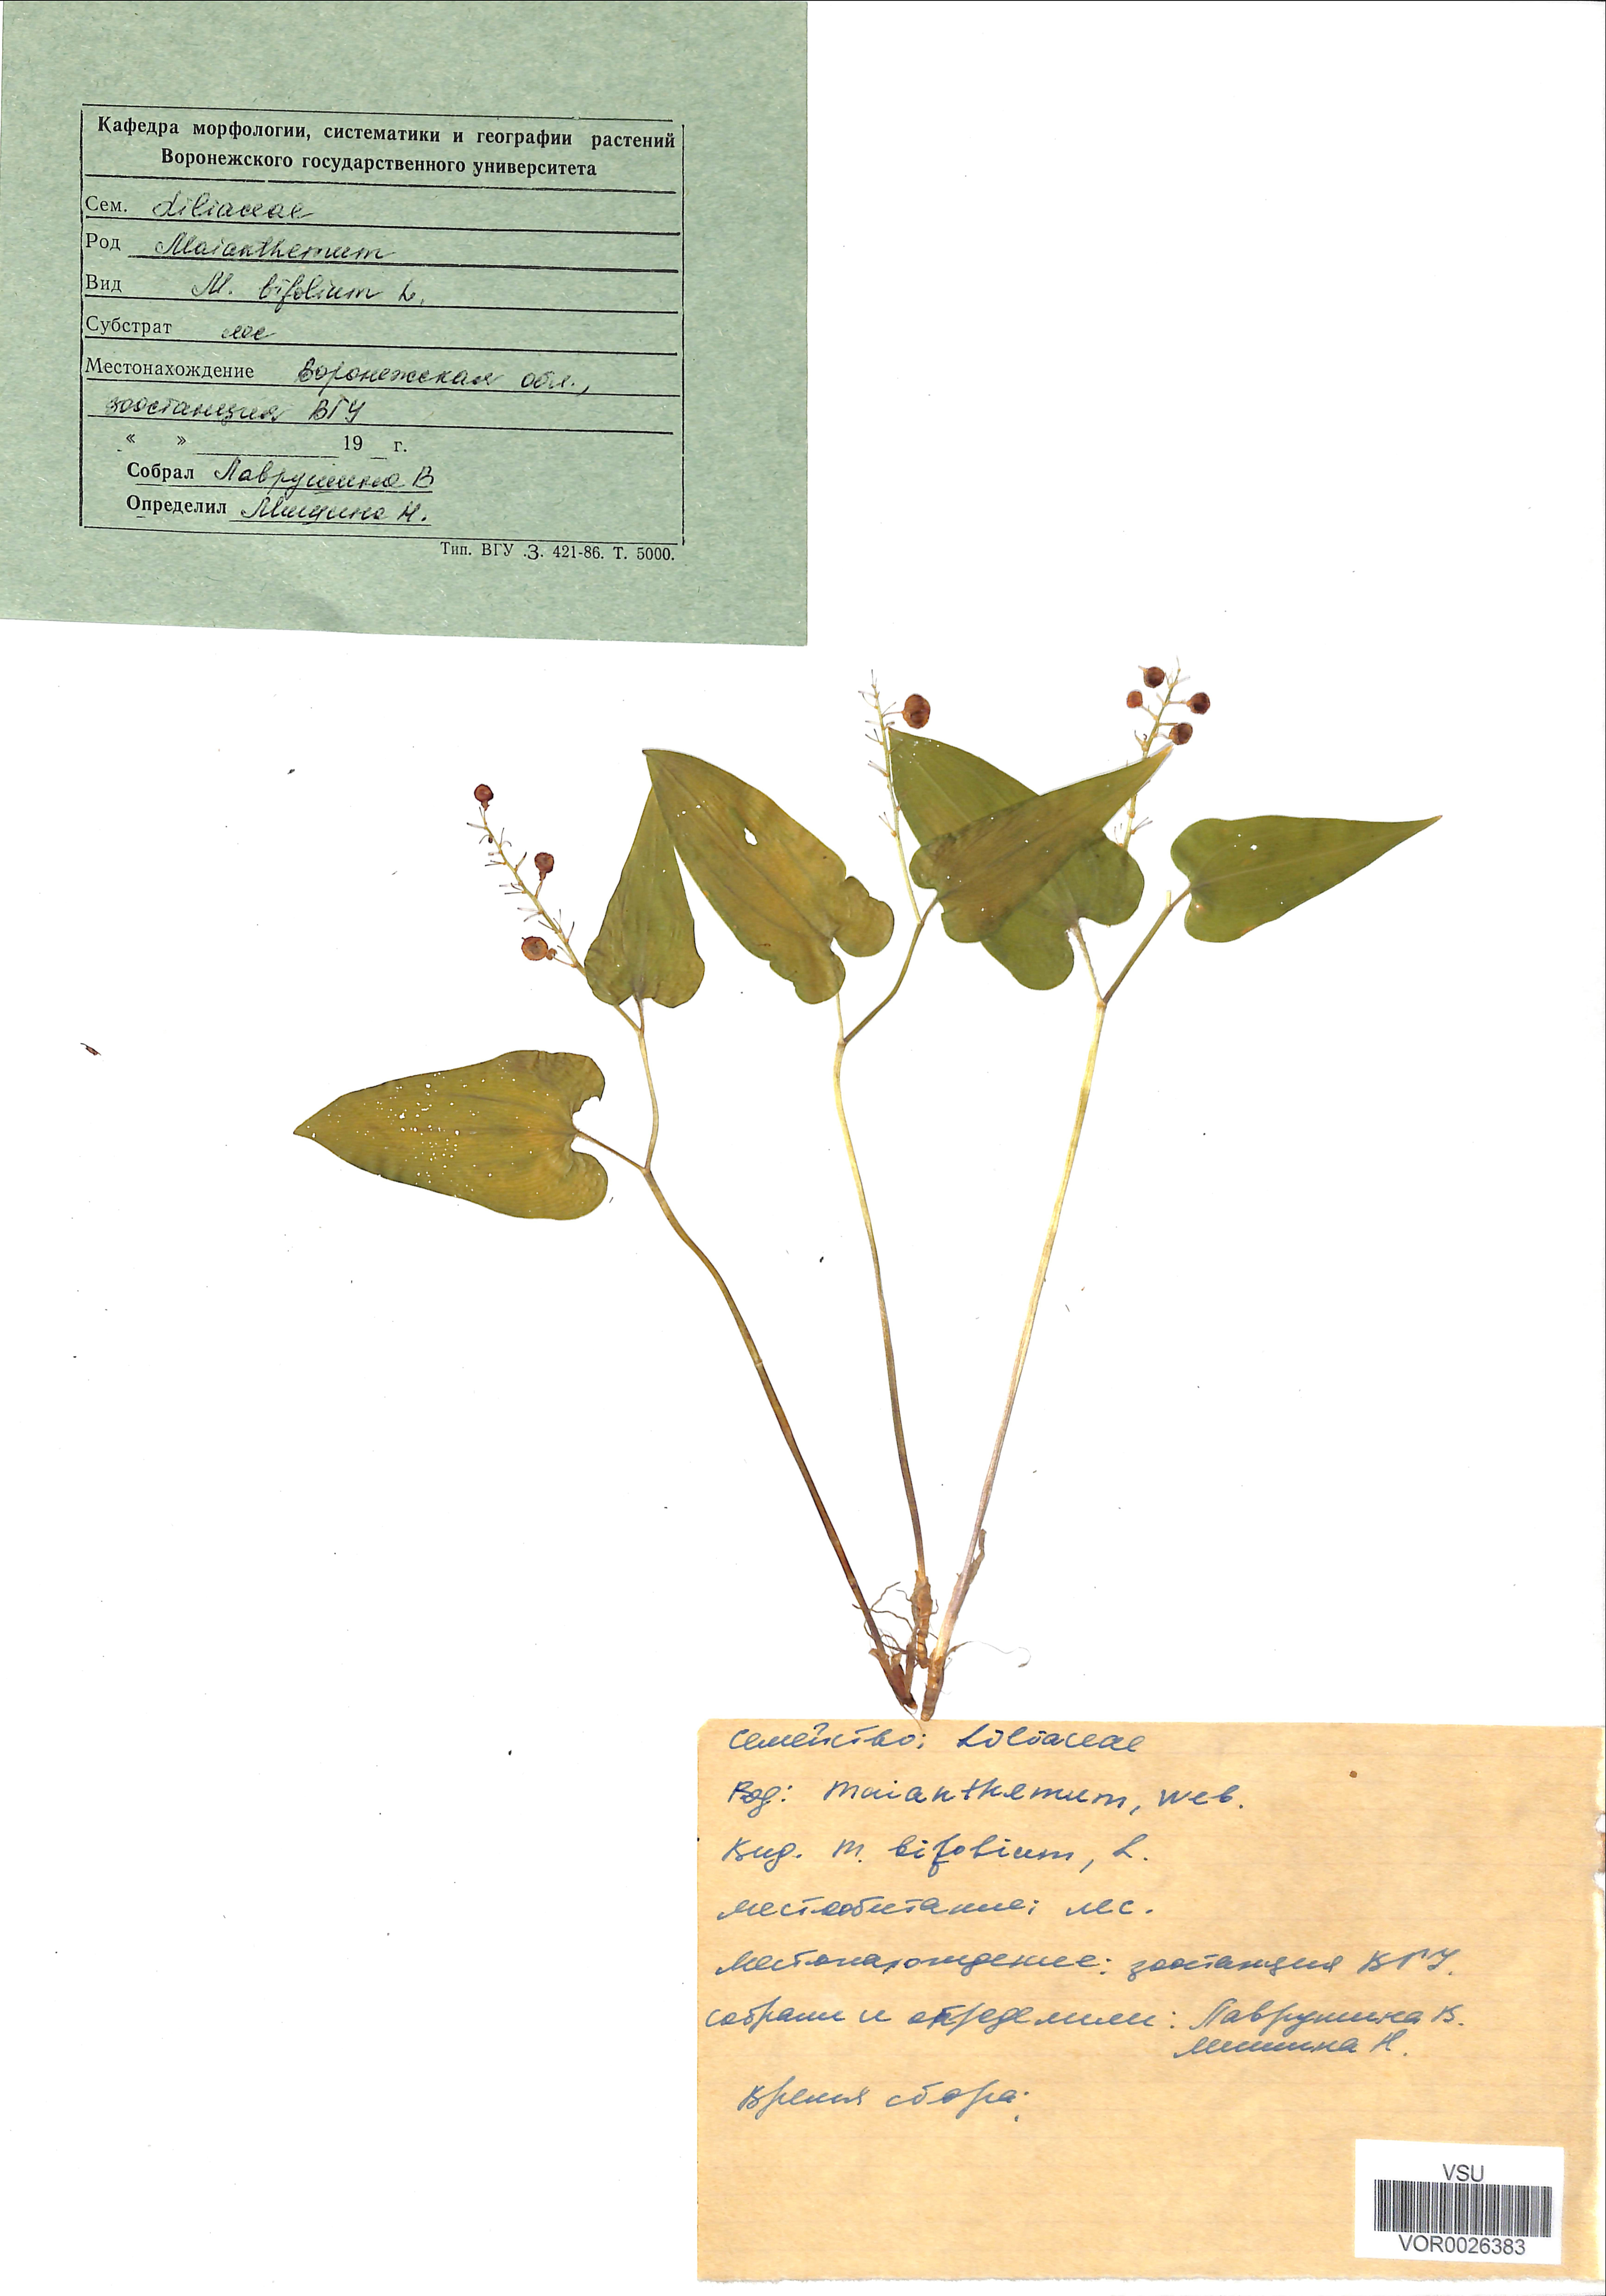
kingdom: Plantae
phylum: Tracheophyta
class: Liliopsida
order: Asparagales
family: Asparagaceae
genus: Maianthemum
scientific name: Maianthemum bifolium
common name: May lily
